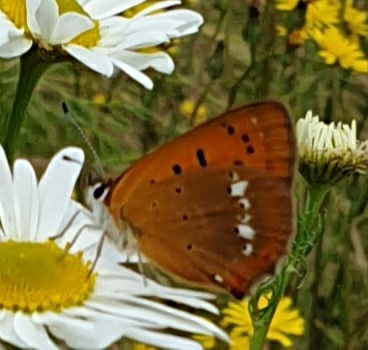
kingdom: Animalia
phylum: Arthropoda
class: Insecta
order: Lepidoptera
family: Lycaenidae
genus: Lycaena
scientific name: Lycaena virgaureae
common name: Dukatsommerfugl
